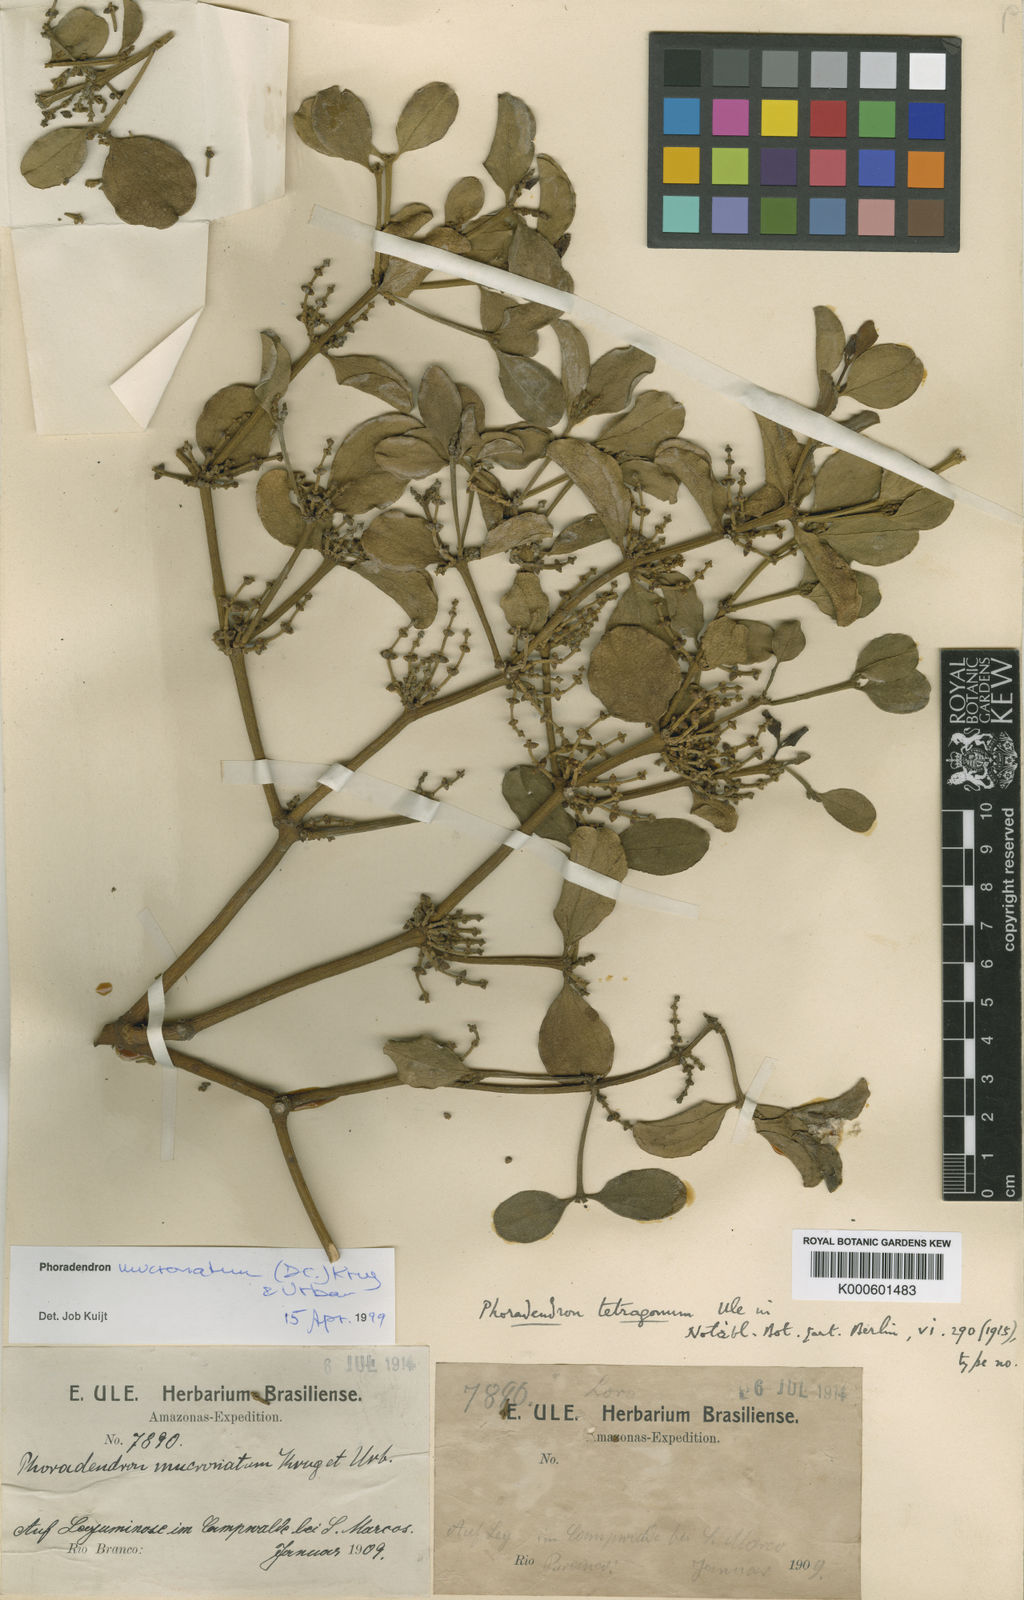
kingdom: Plantae
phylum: Tracheophyta
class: Magnoliopsida
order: Santalales
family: Viscaceae
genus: Phoradendron
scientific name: Phoradendron mucronatum
